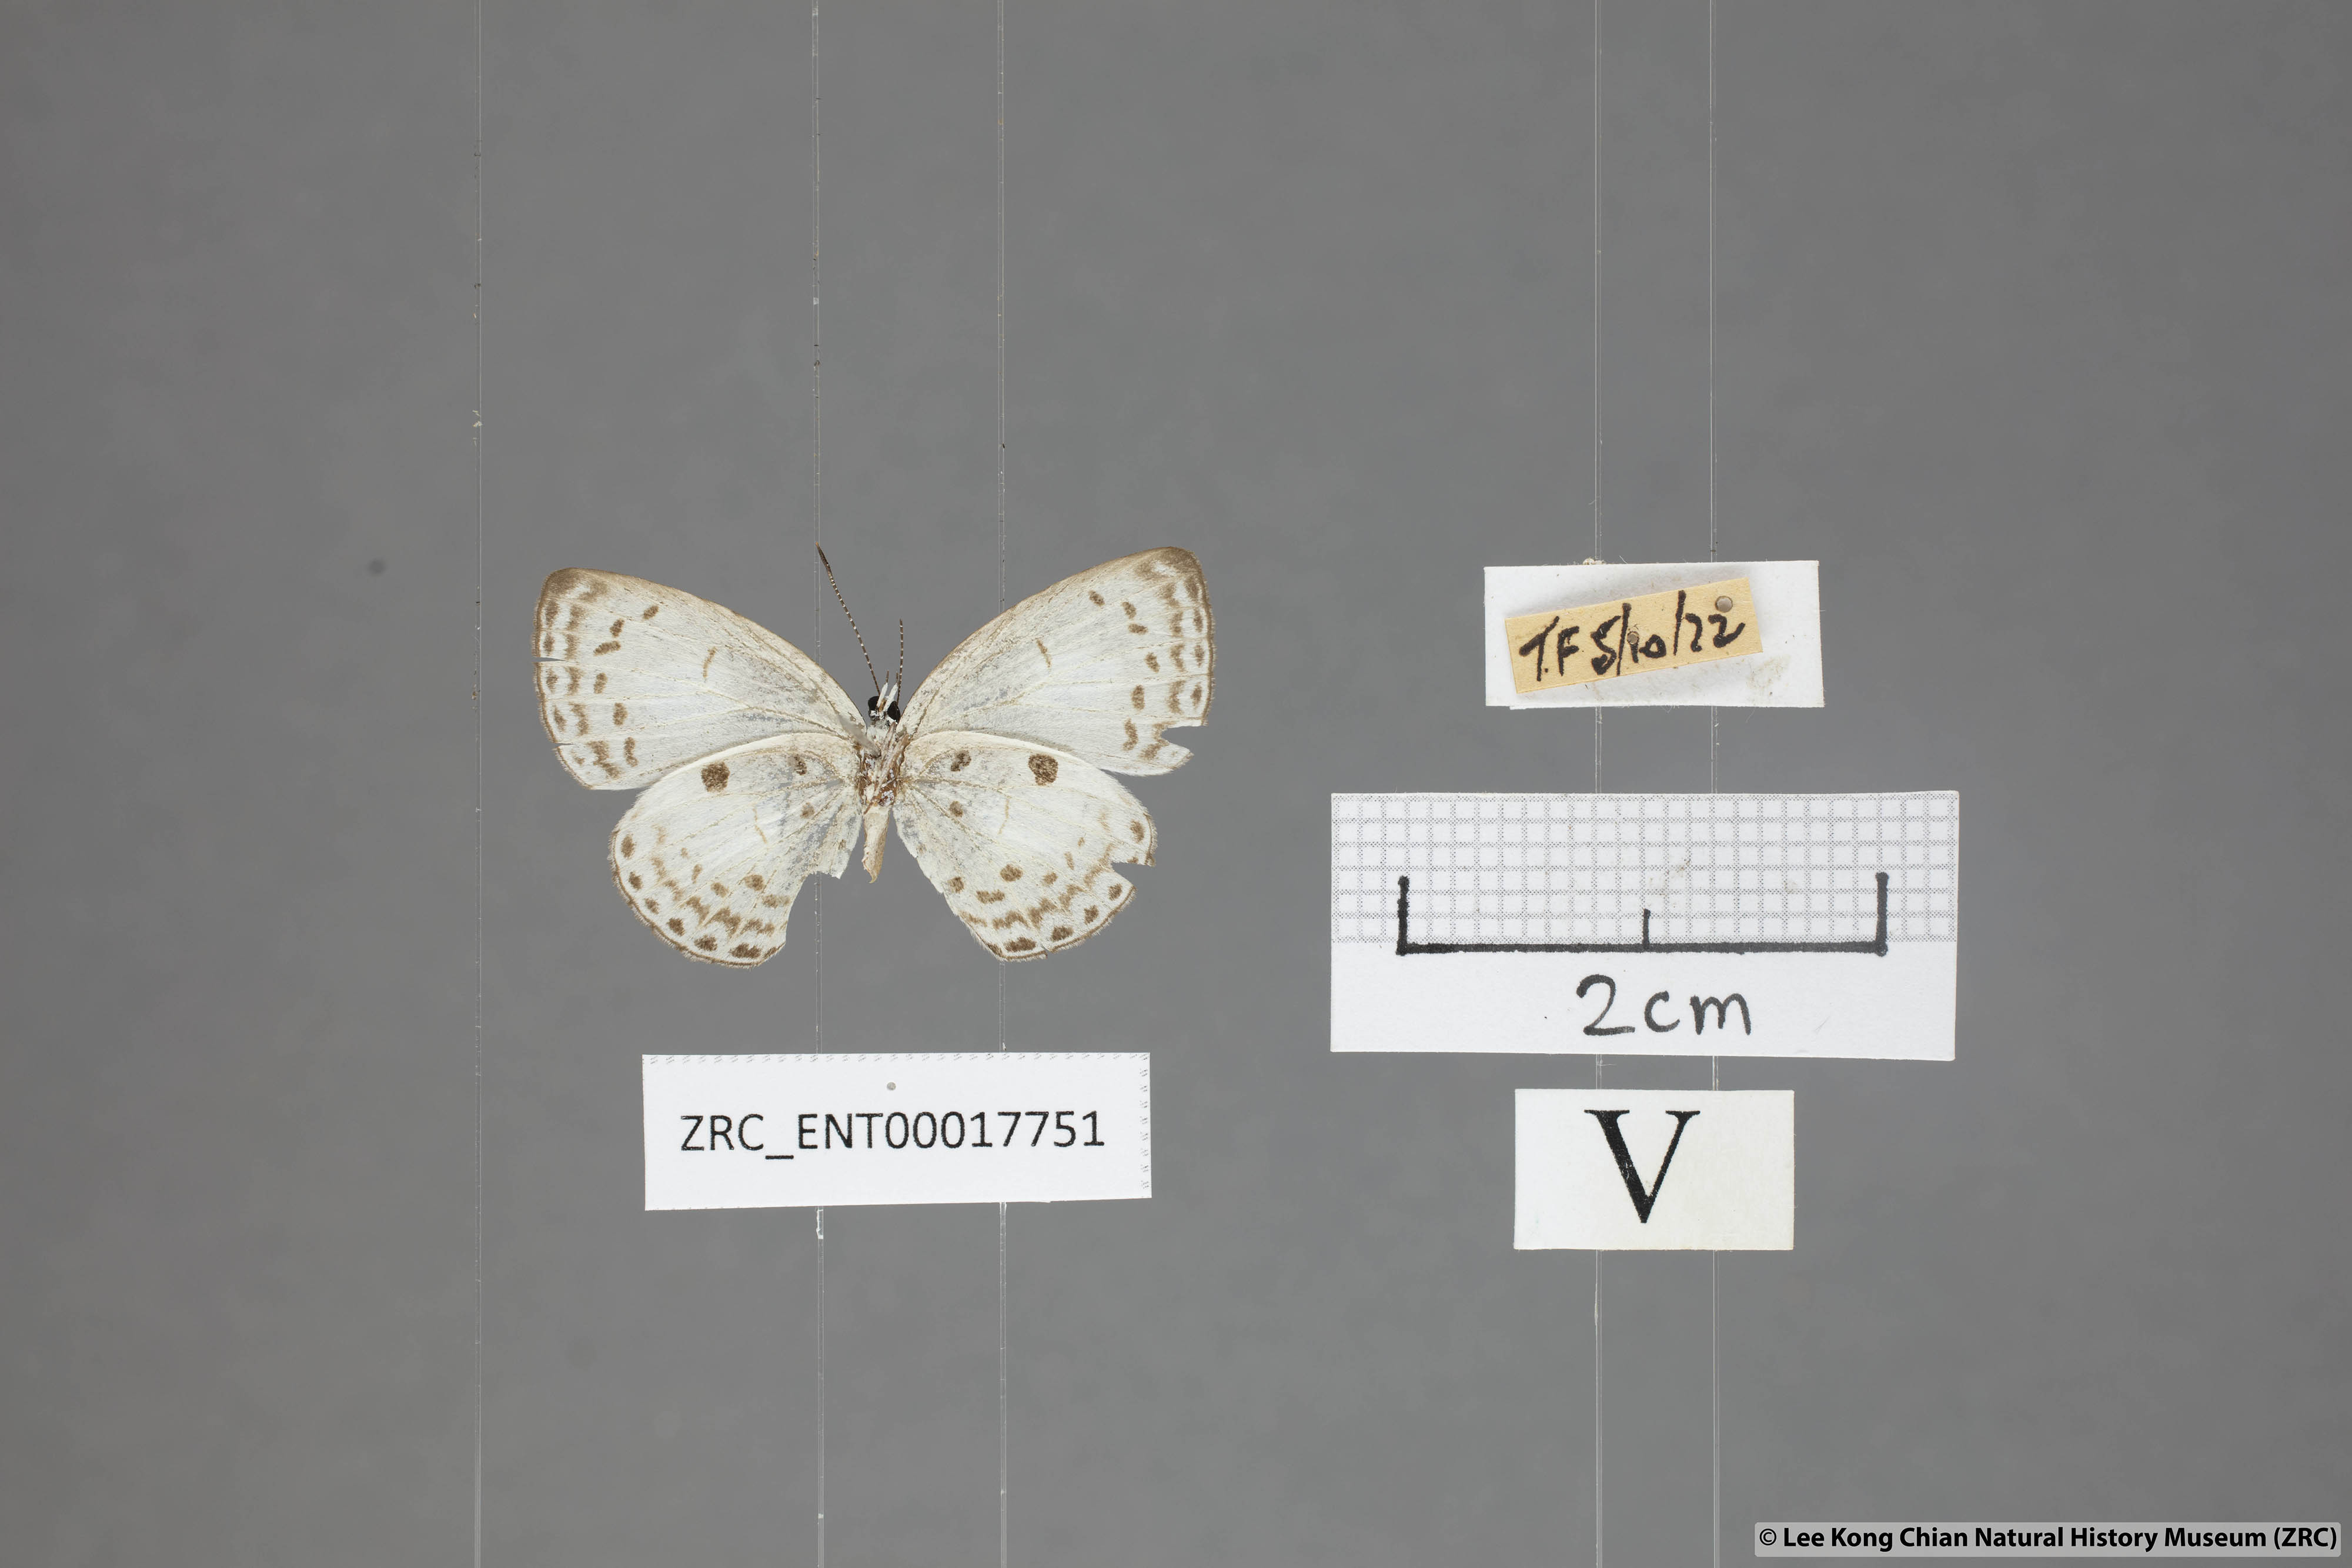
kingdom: Animalia
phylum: Arthropoda
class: Insecta
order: Lepidoptera
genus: Plautella
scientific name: Plautella
